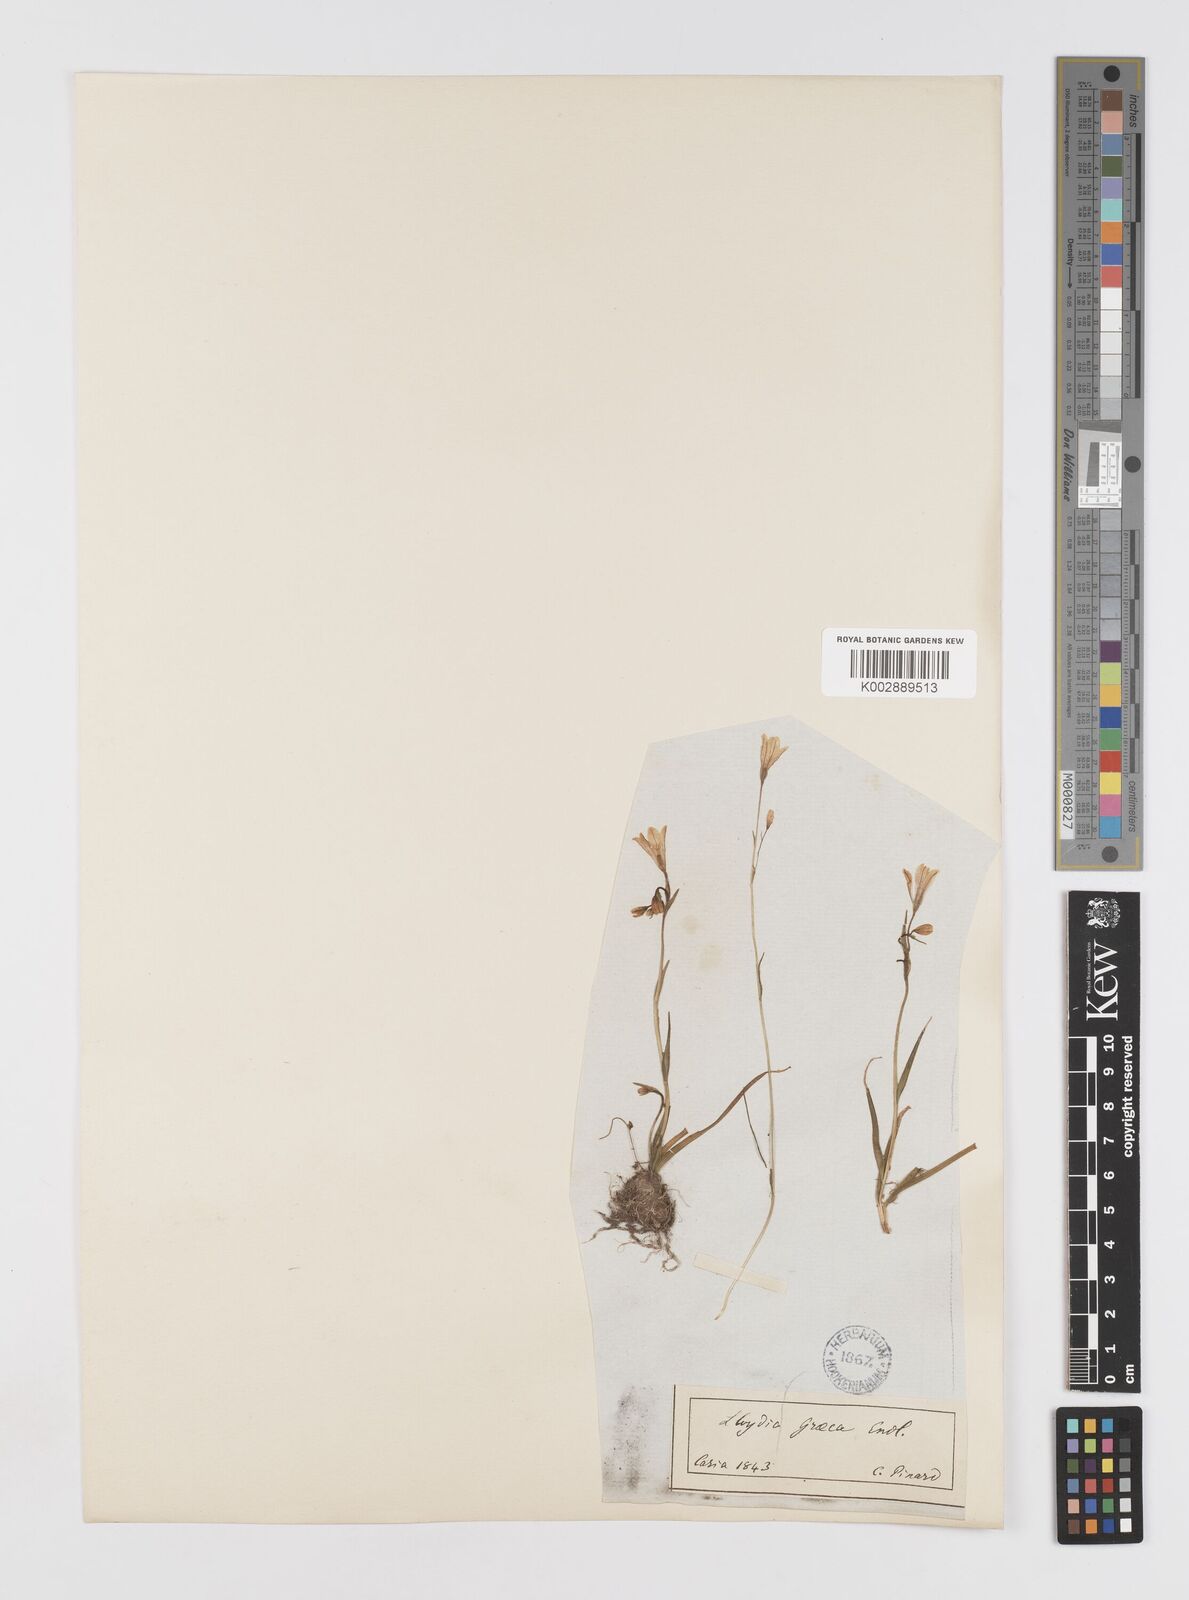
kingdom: Plantae
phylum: Tracheophyta
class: Liliopsida
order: Liliales
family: Liliaceae
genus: Gagea
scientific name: Gagea graeca
